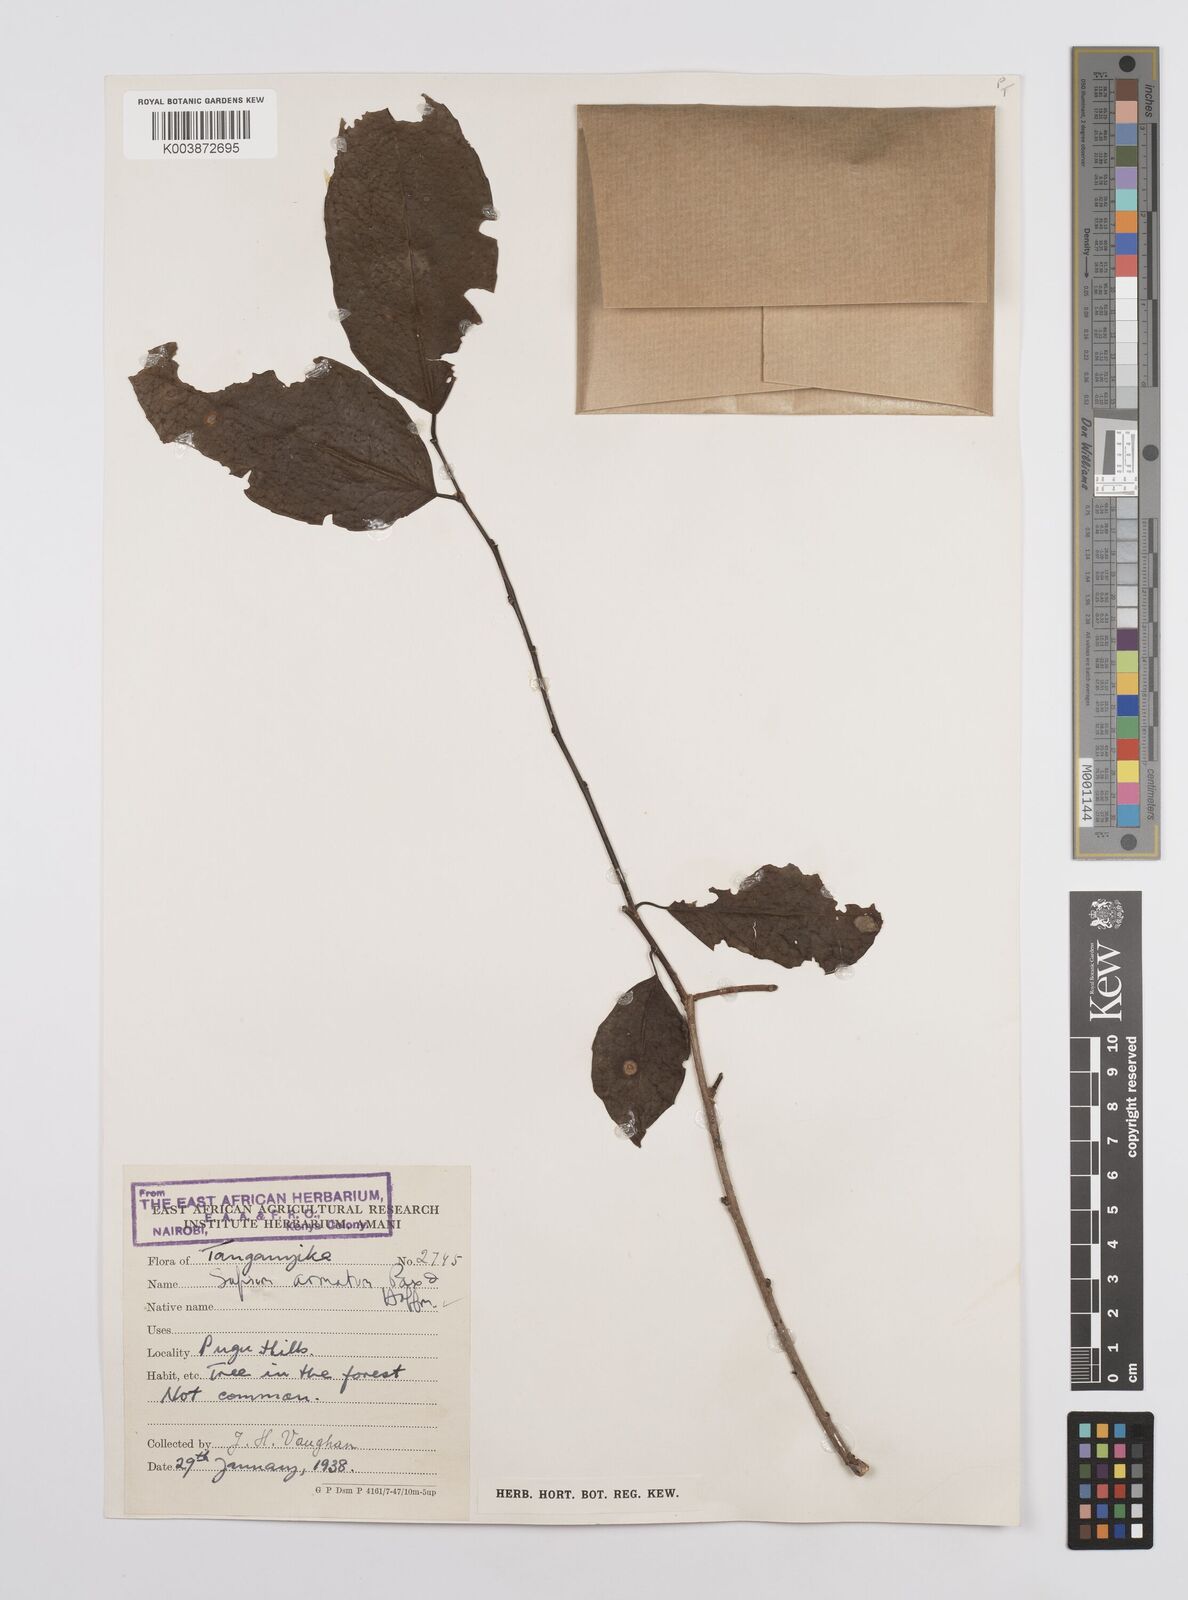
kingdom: Plantae
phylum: Tracheophyta
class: Magnoliopsida
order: Malpighiales
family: Euphorbiaceae
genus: Sclerocroton
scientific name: Sclerocroton integerrimus
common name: Duiker berry
